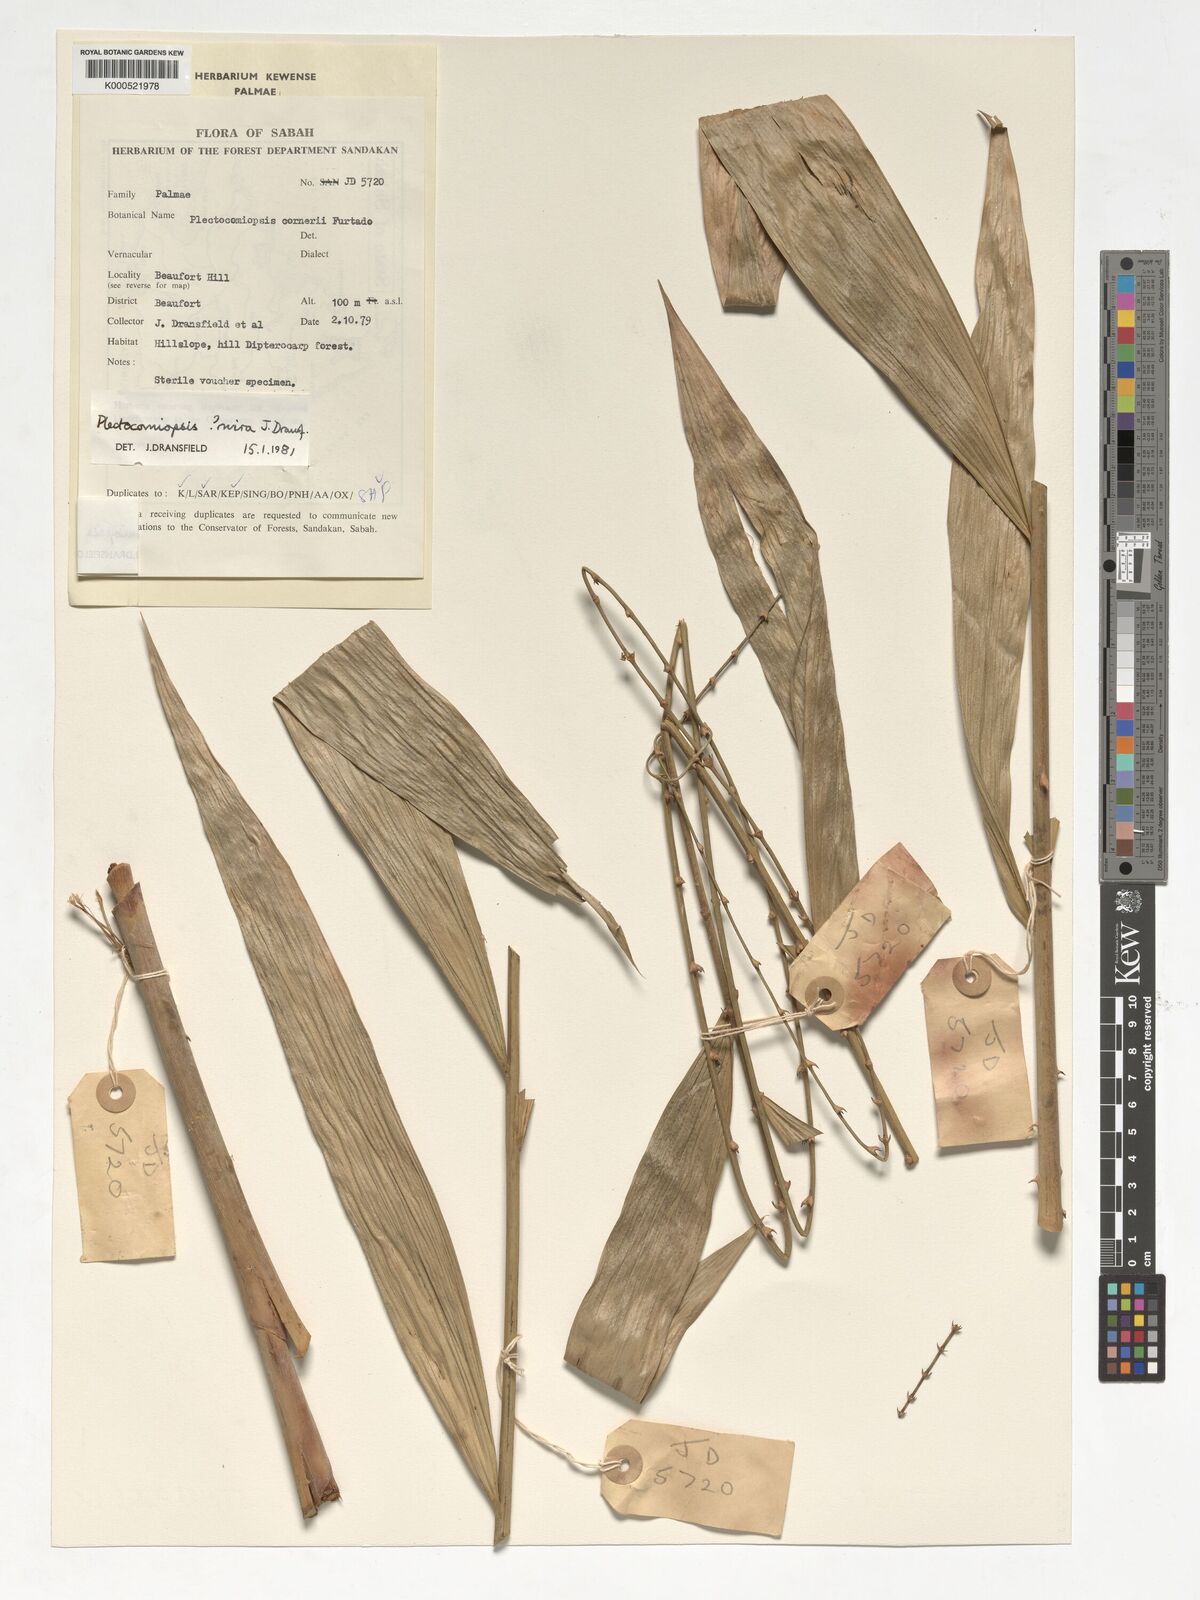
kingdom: Plantae
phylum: Tracheophyta
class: Liliopsida
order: Arecales
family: Arecaceae
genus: Plectocomiopsis
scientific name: Plectocomiopsis mira
